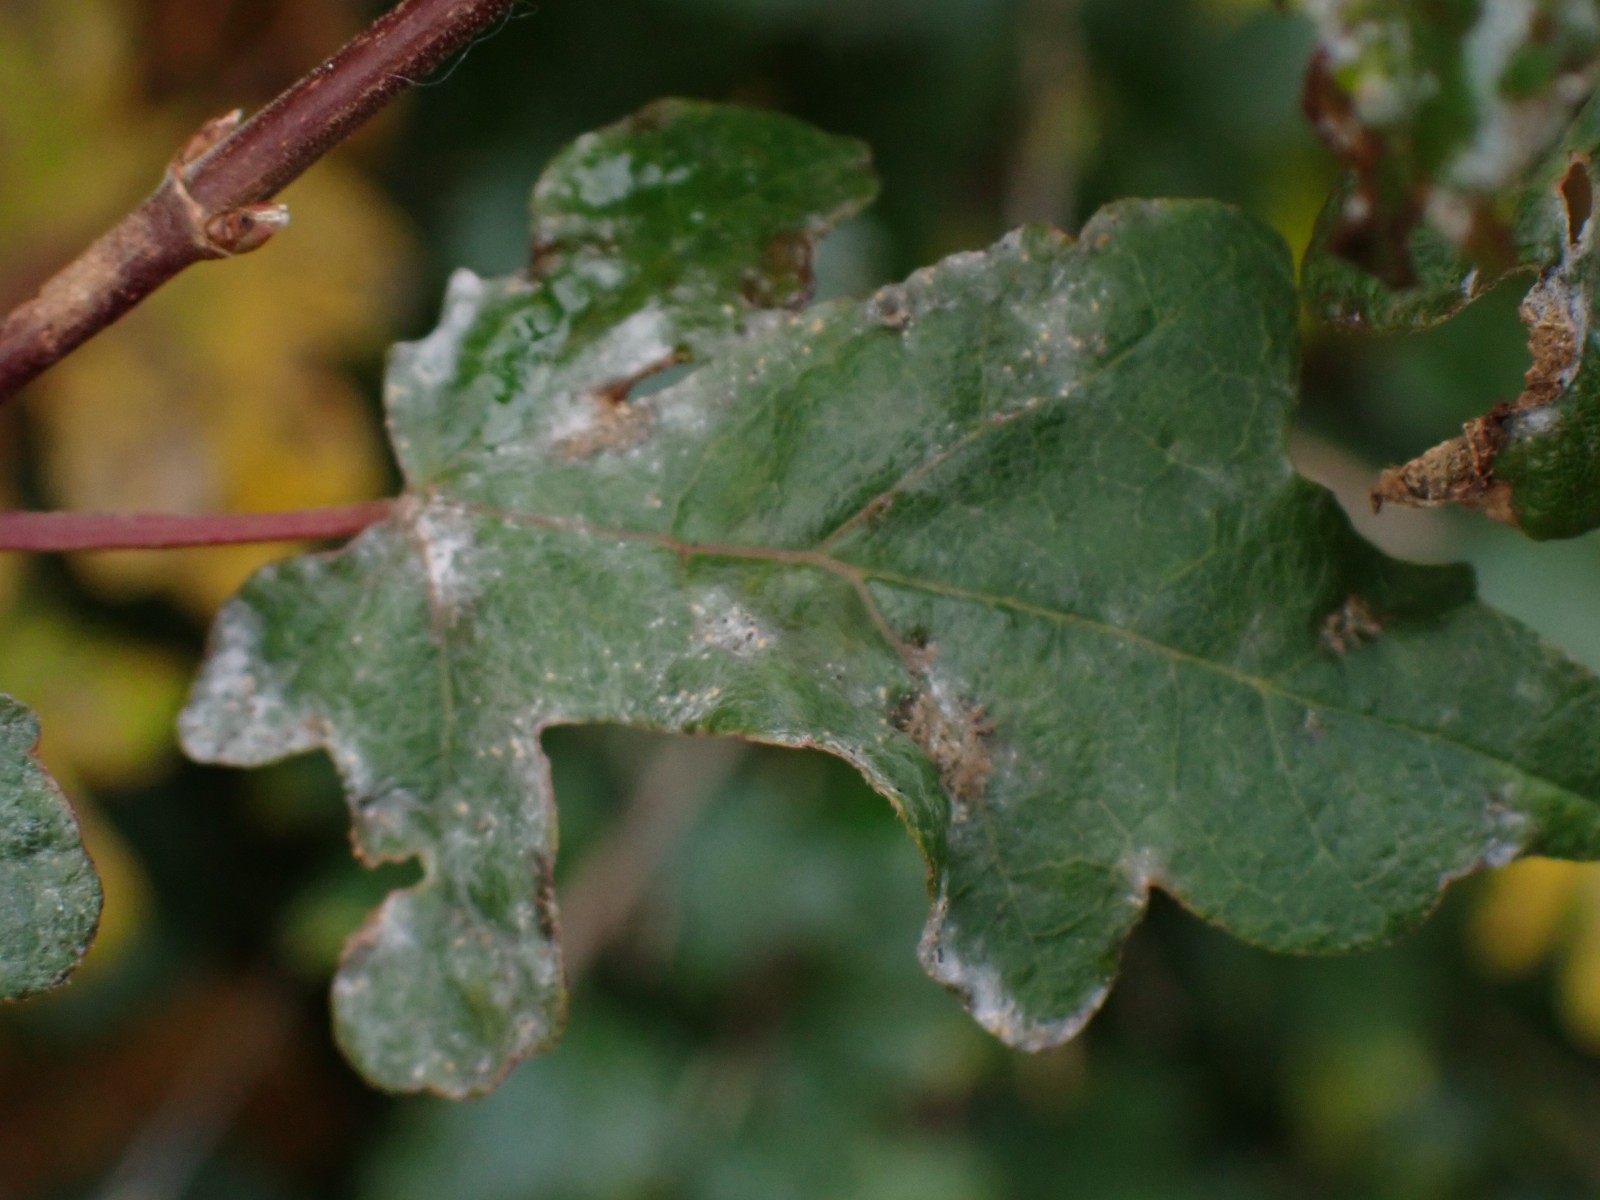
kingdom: Fungi
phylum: Ascomycota
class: Leotiomycetes
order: Helotiales
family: Erysiphaceae
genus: Sawadaea
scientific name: Sawadaea bicornis
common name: Maple mildew
